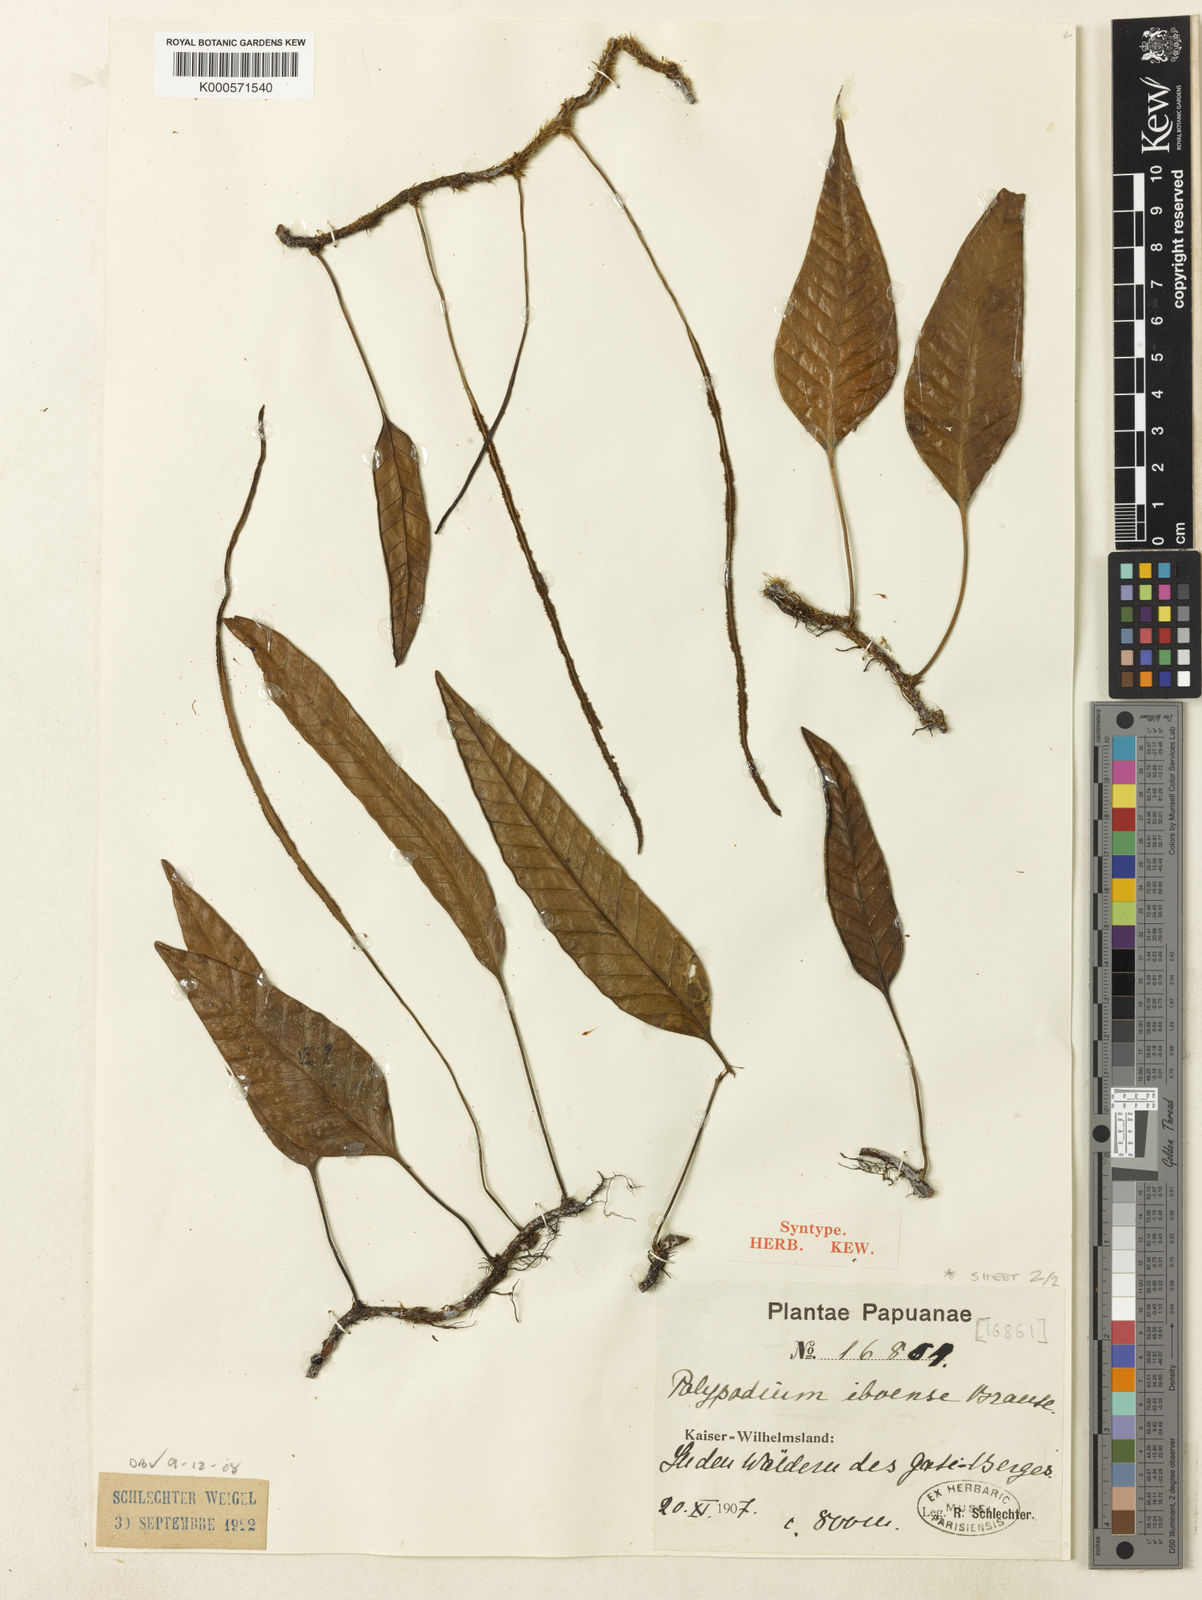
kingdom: Plantae
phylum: Tracheophyta
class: Polypodiopsida
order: Polypodiales
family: Polypodiaceae
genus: Selliguea
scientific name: Selliguea costulata
